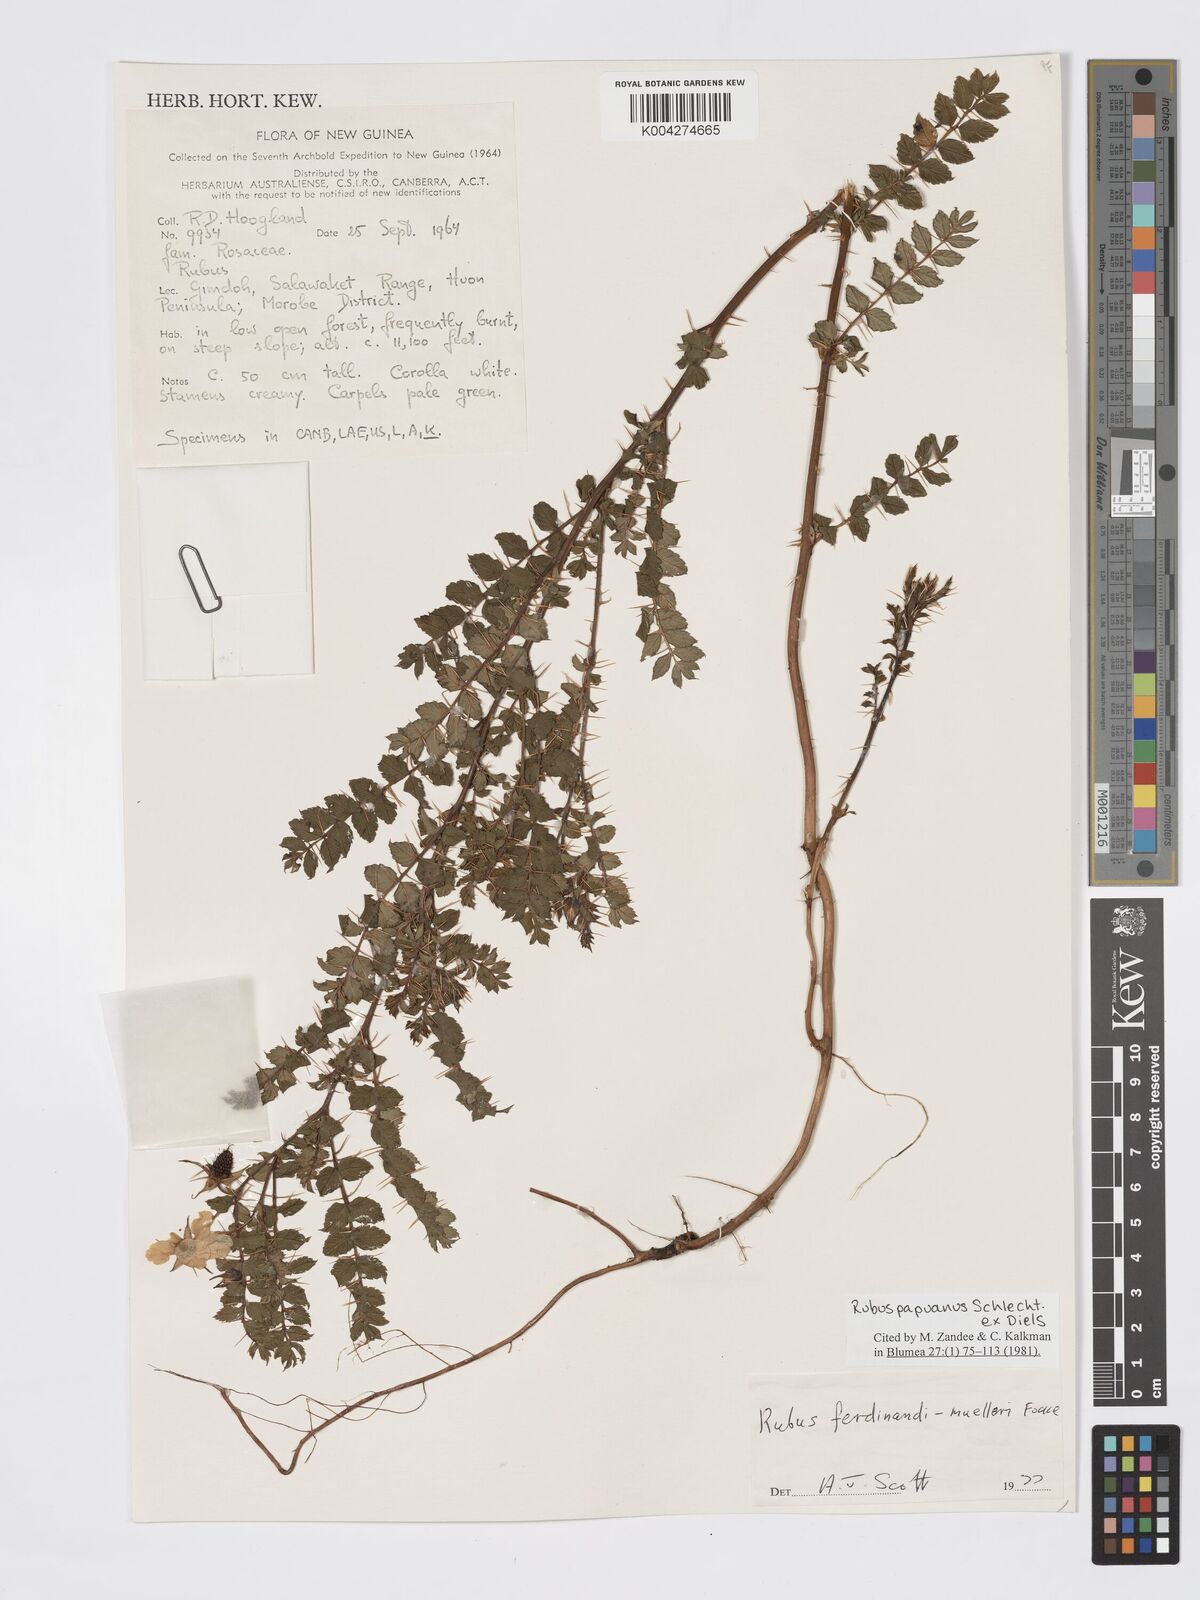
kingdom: Plantae
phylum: Tracheophyta
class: Magnoliopsida
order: Rosales
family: Rosaceae
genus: Rubus
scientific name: Rubus papuanus
